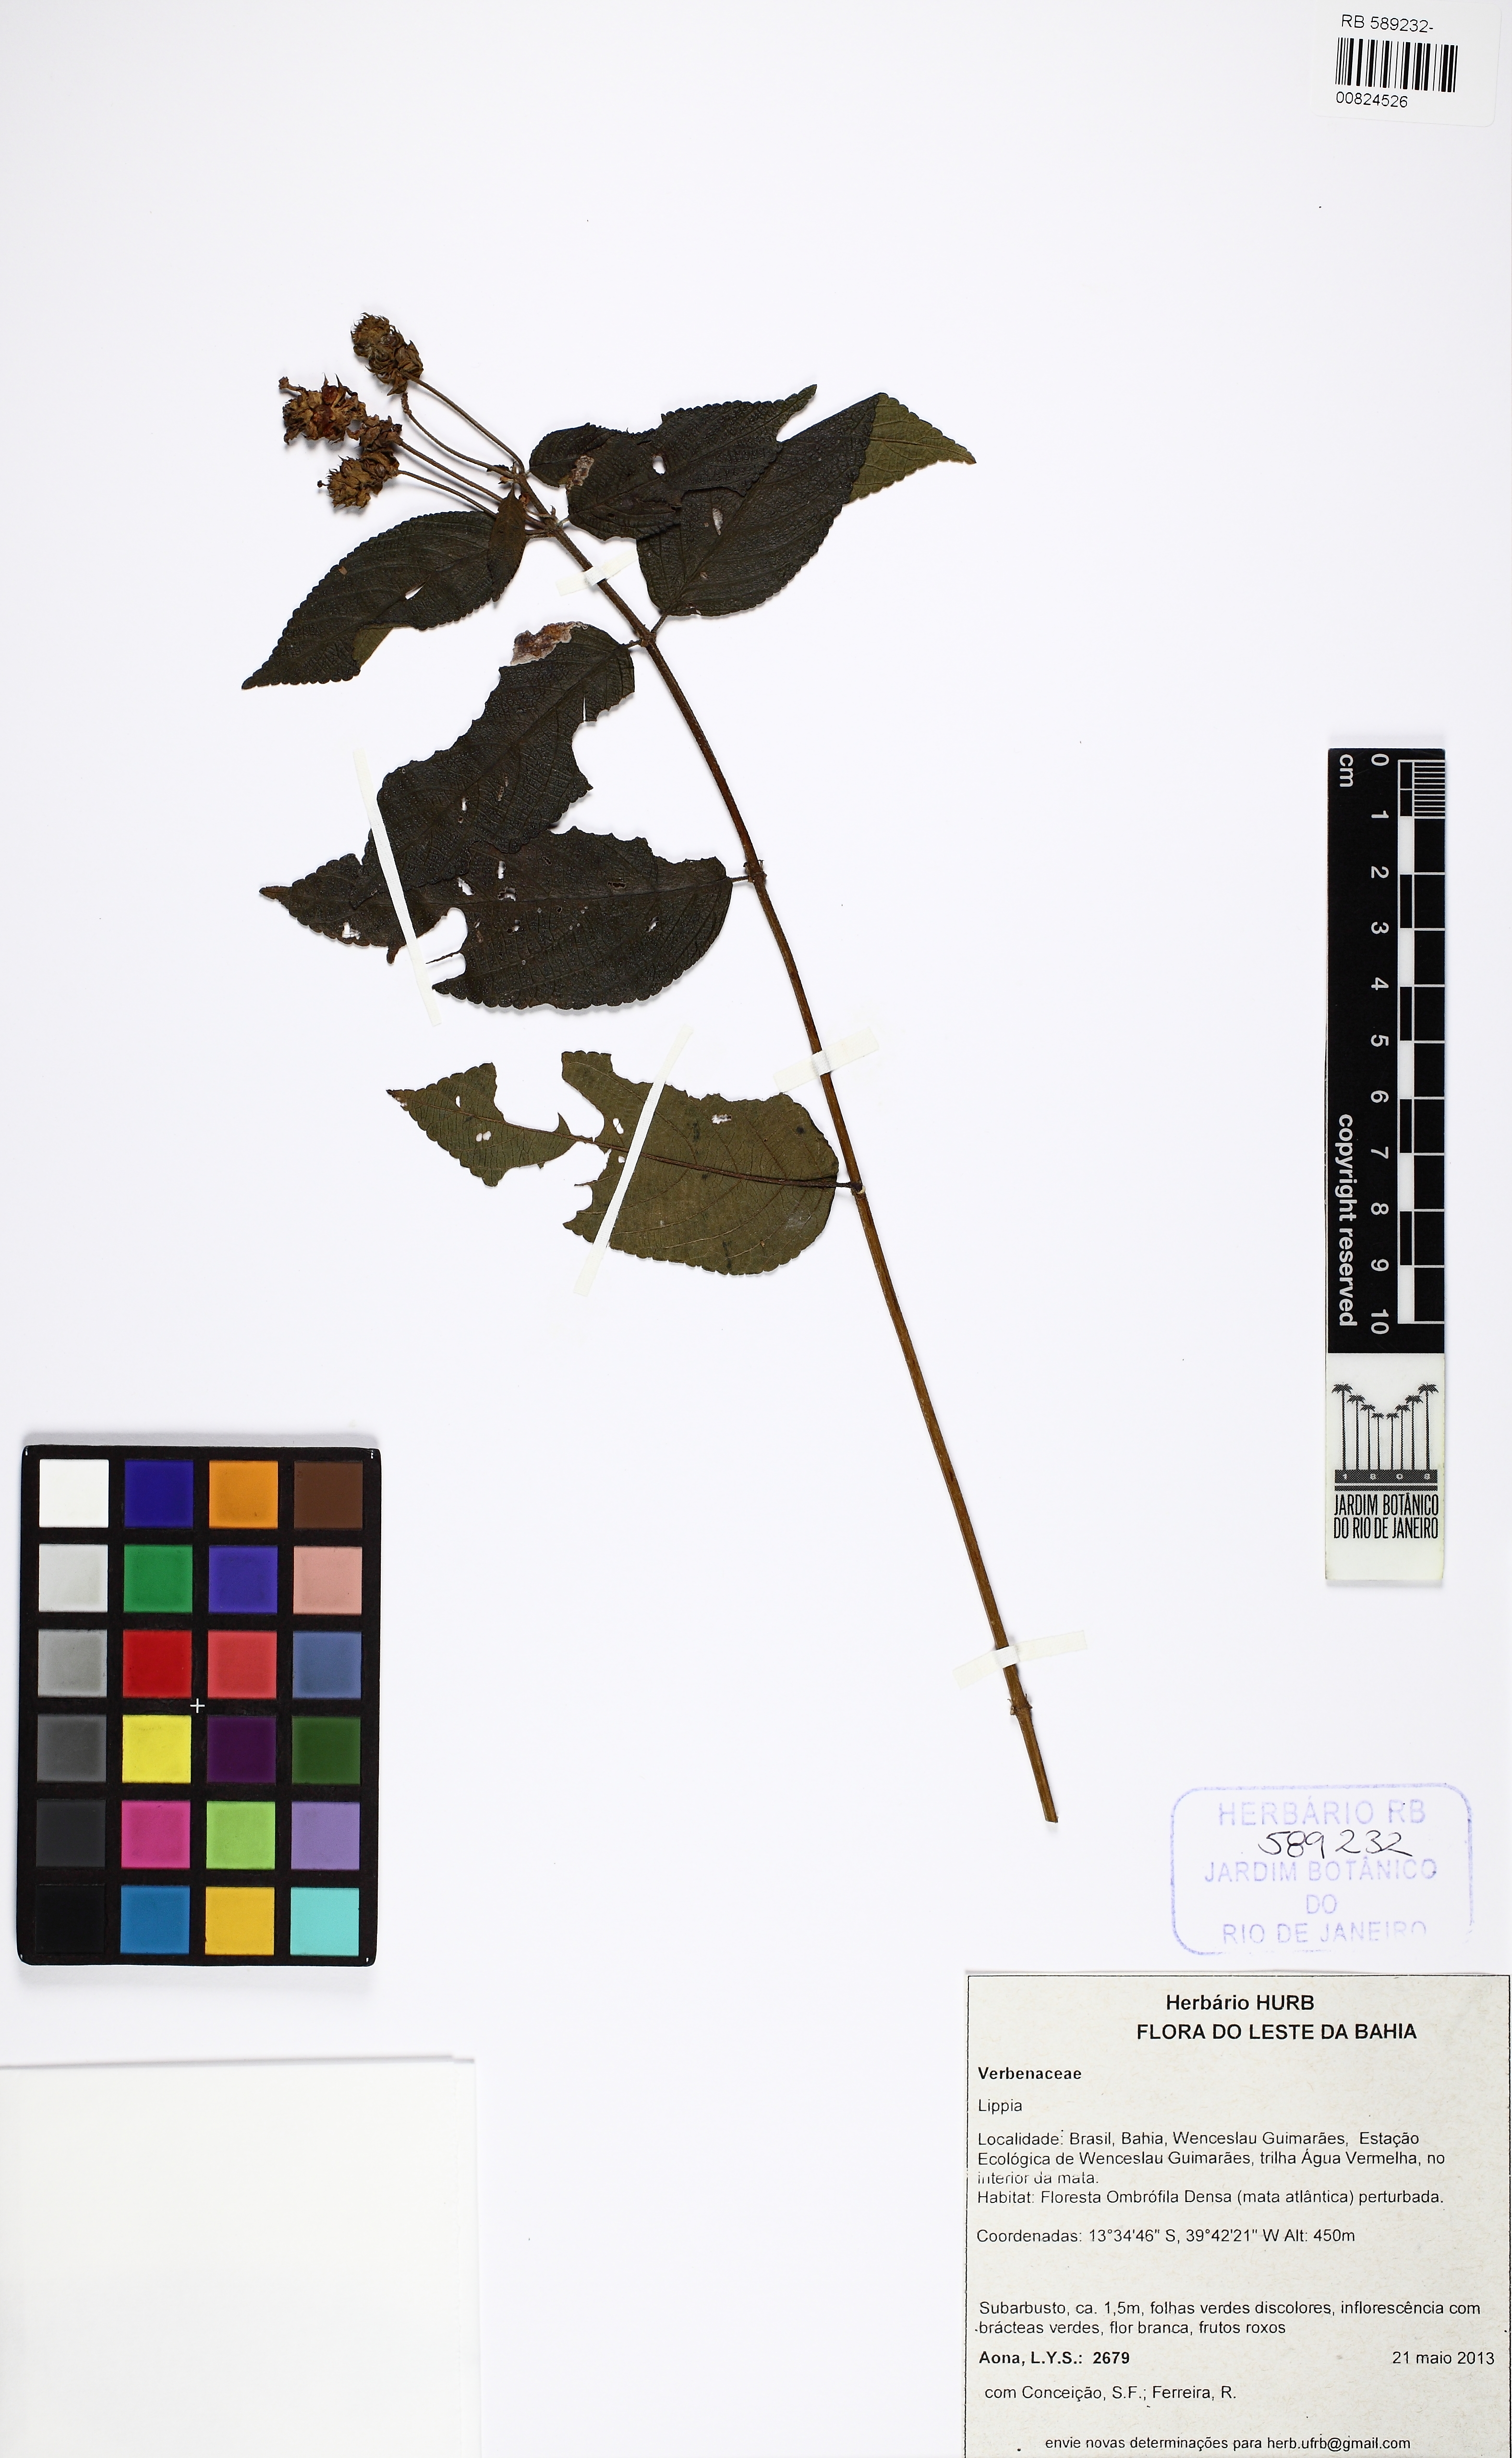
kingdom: Plantae
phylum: Tracheophyta
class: Magnoliopsida
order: Lamiales
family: Verbenaceae
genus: Lippia
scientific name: Lippia
